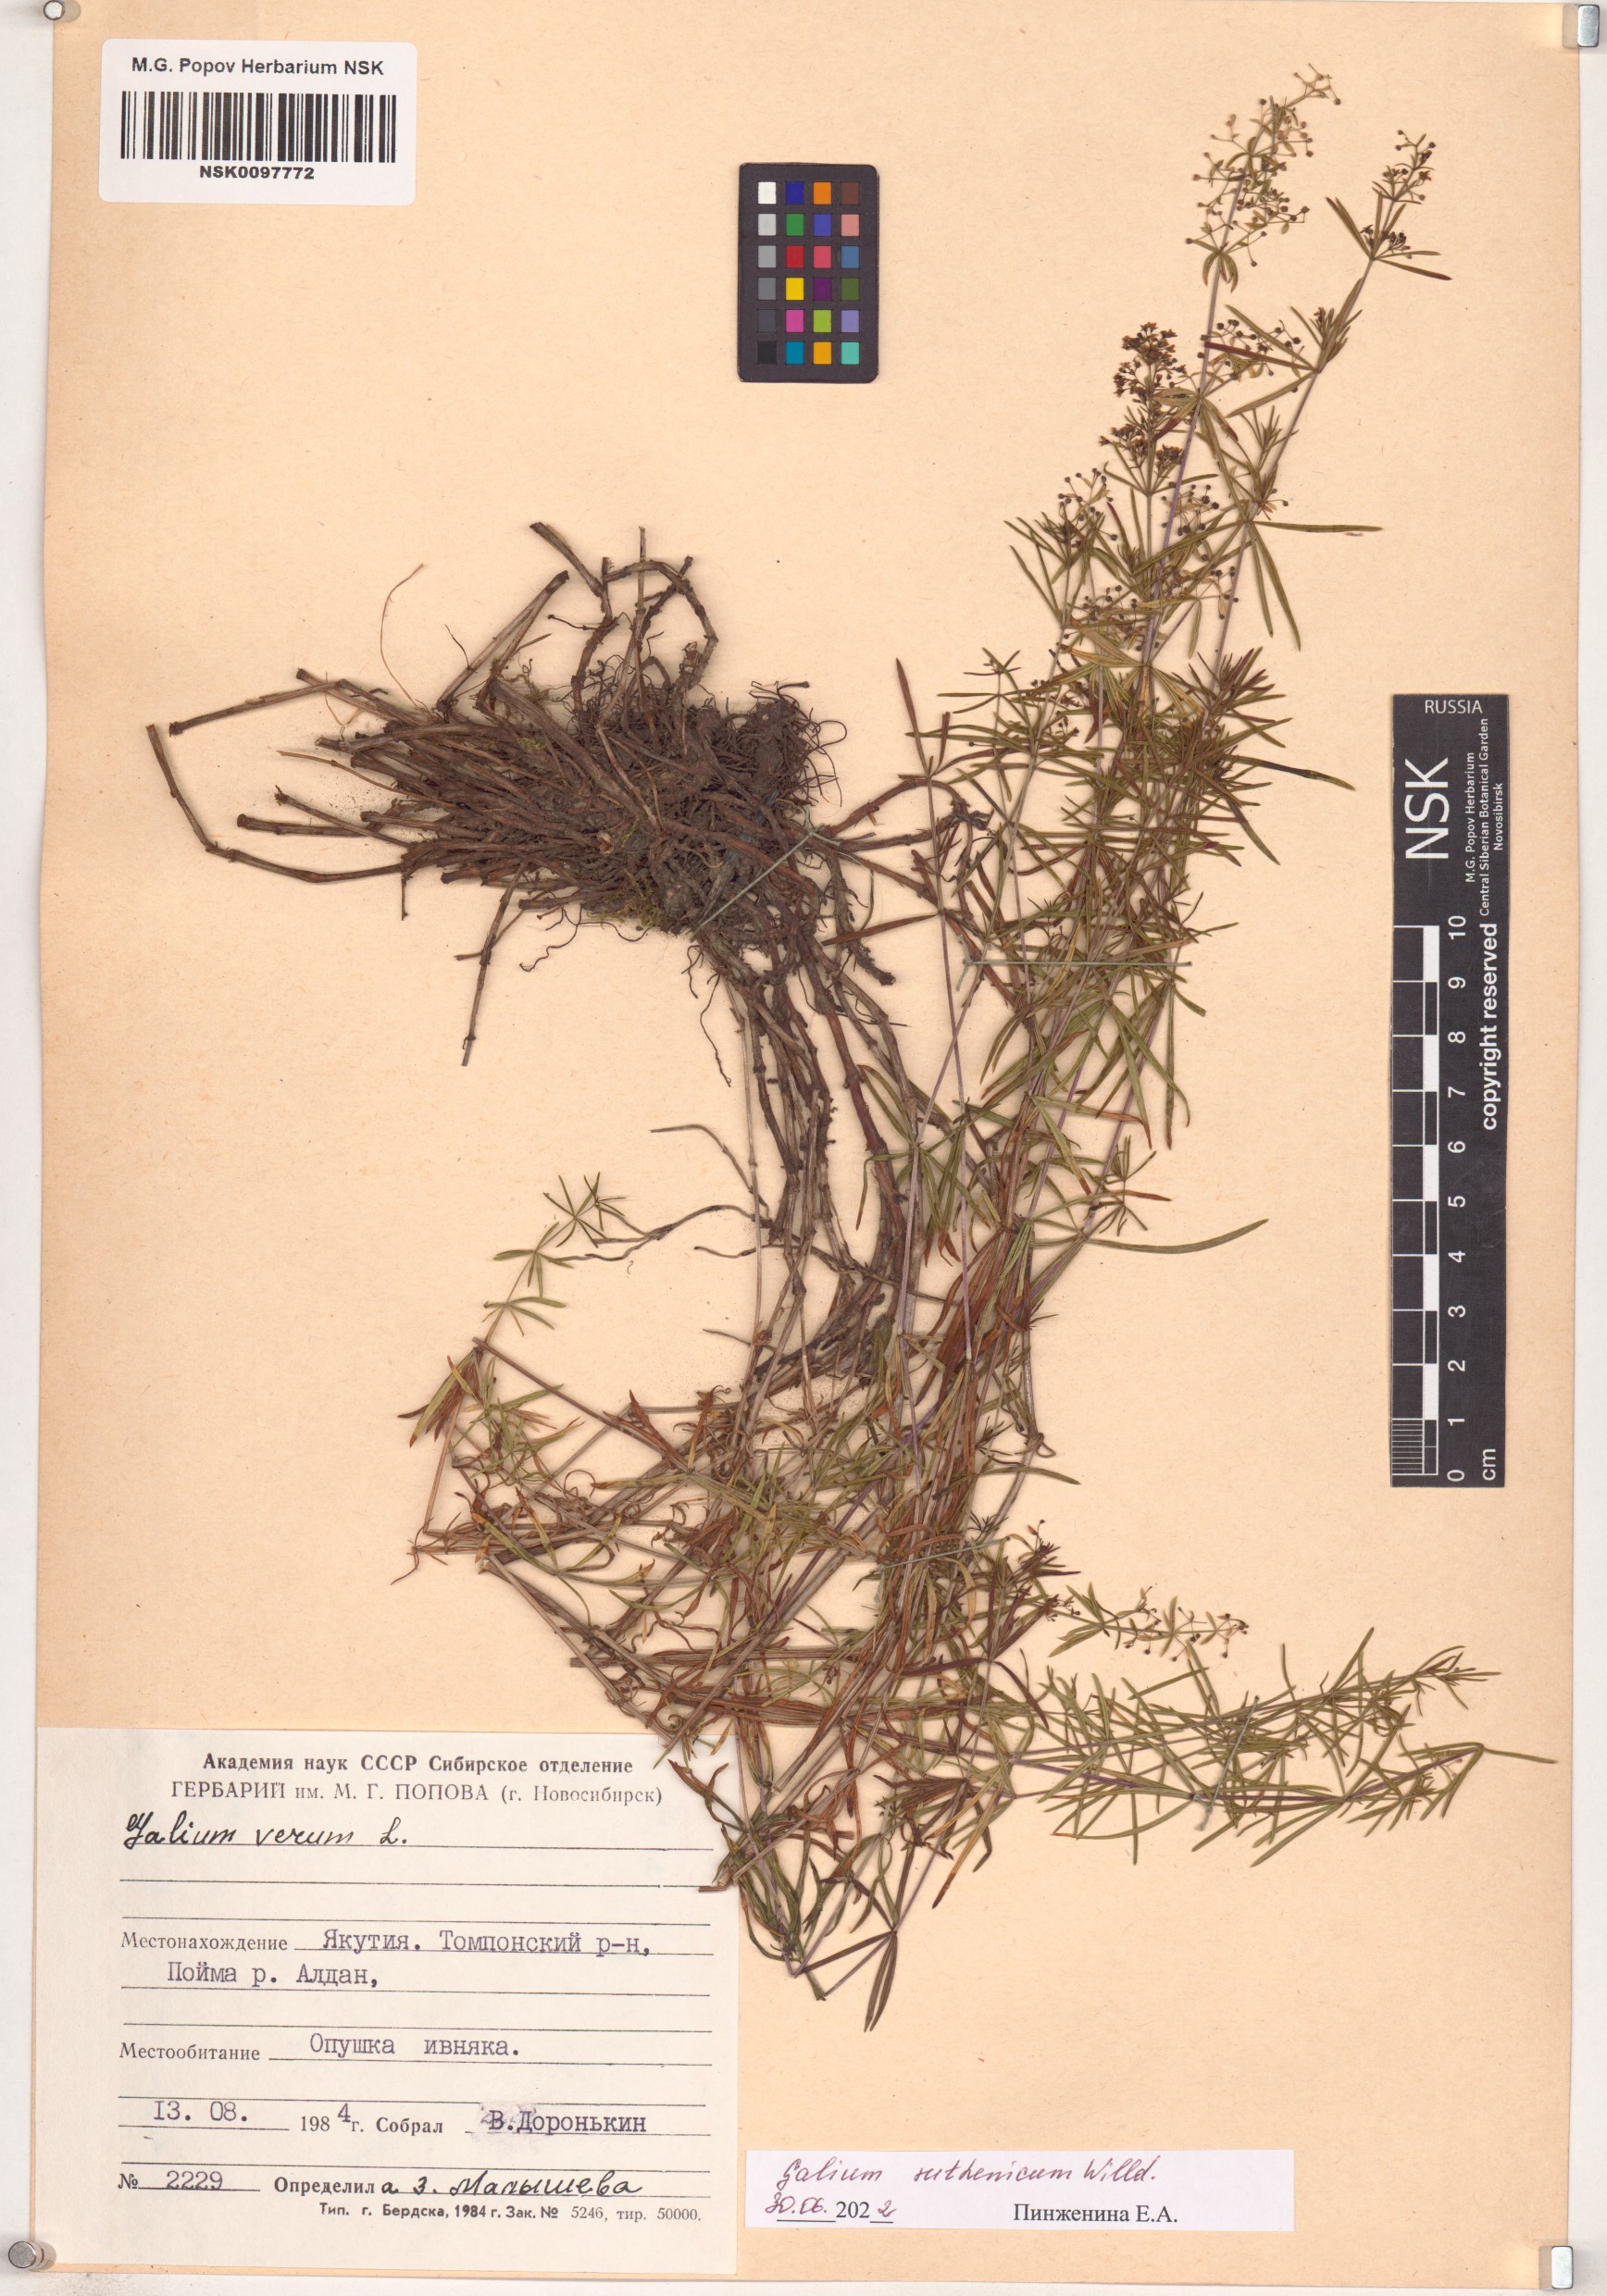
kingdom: Plantae
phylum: Tracheophyta
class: Magnoliopsida
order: Gentianales
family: Rubiaceae
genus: Galium
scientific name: Galium verum
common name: Lady's bedstraw
